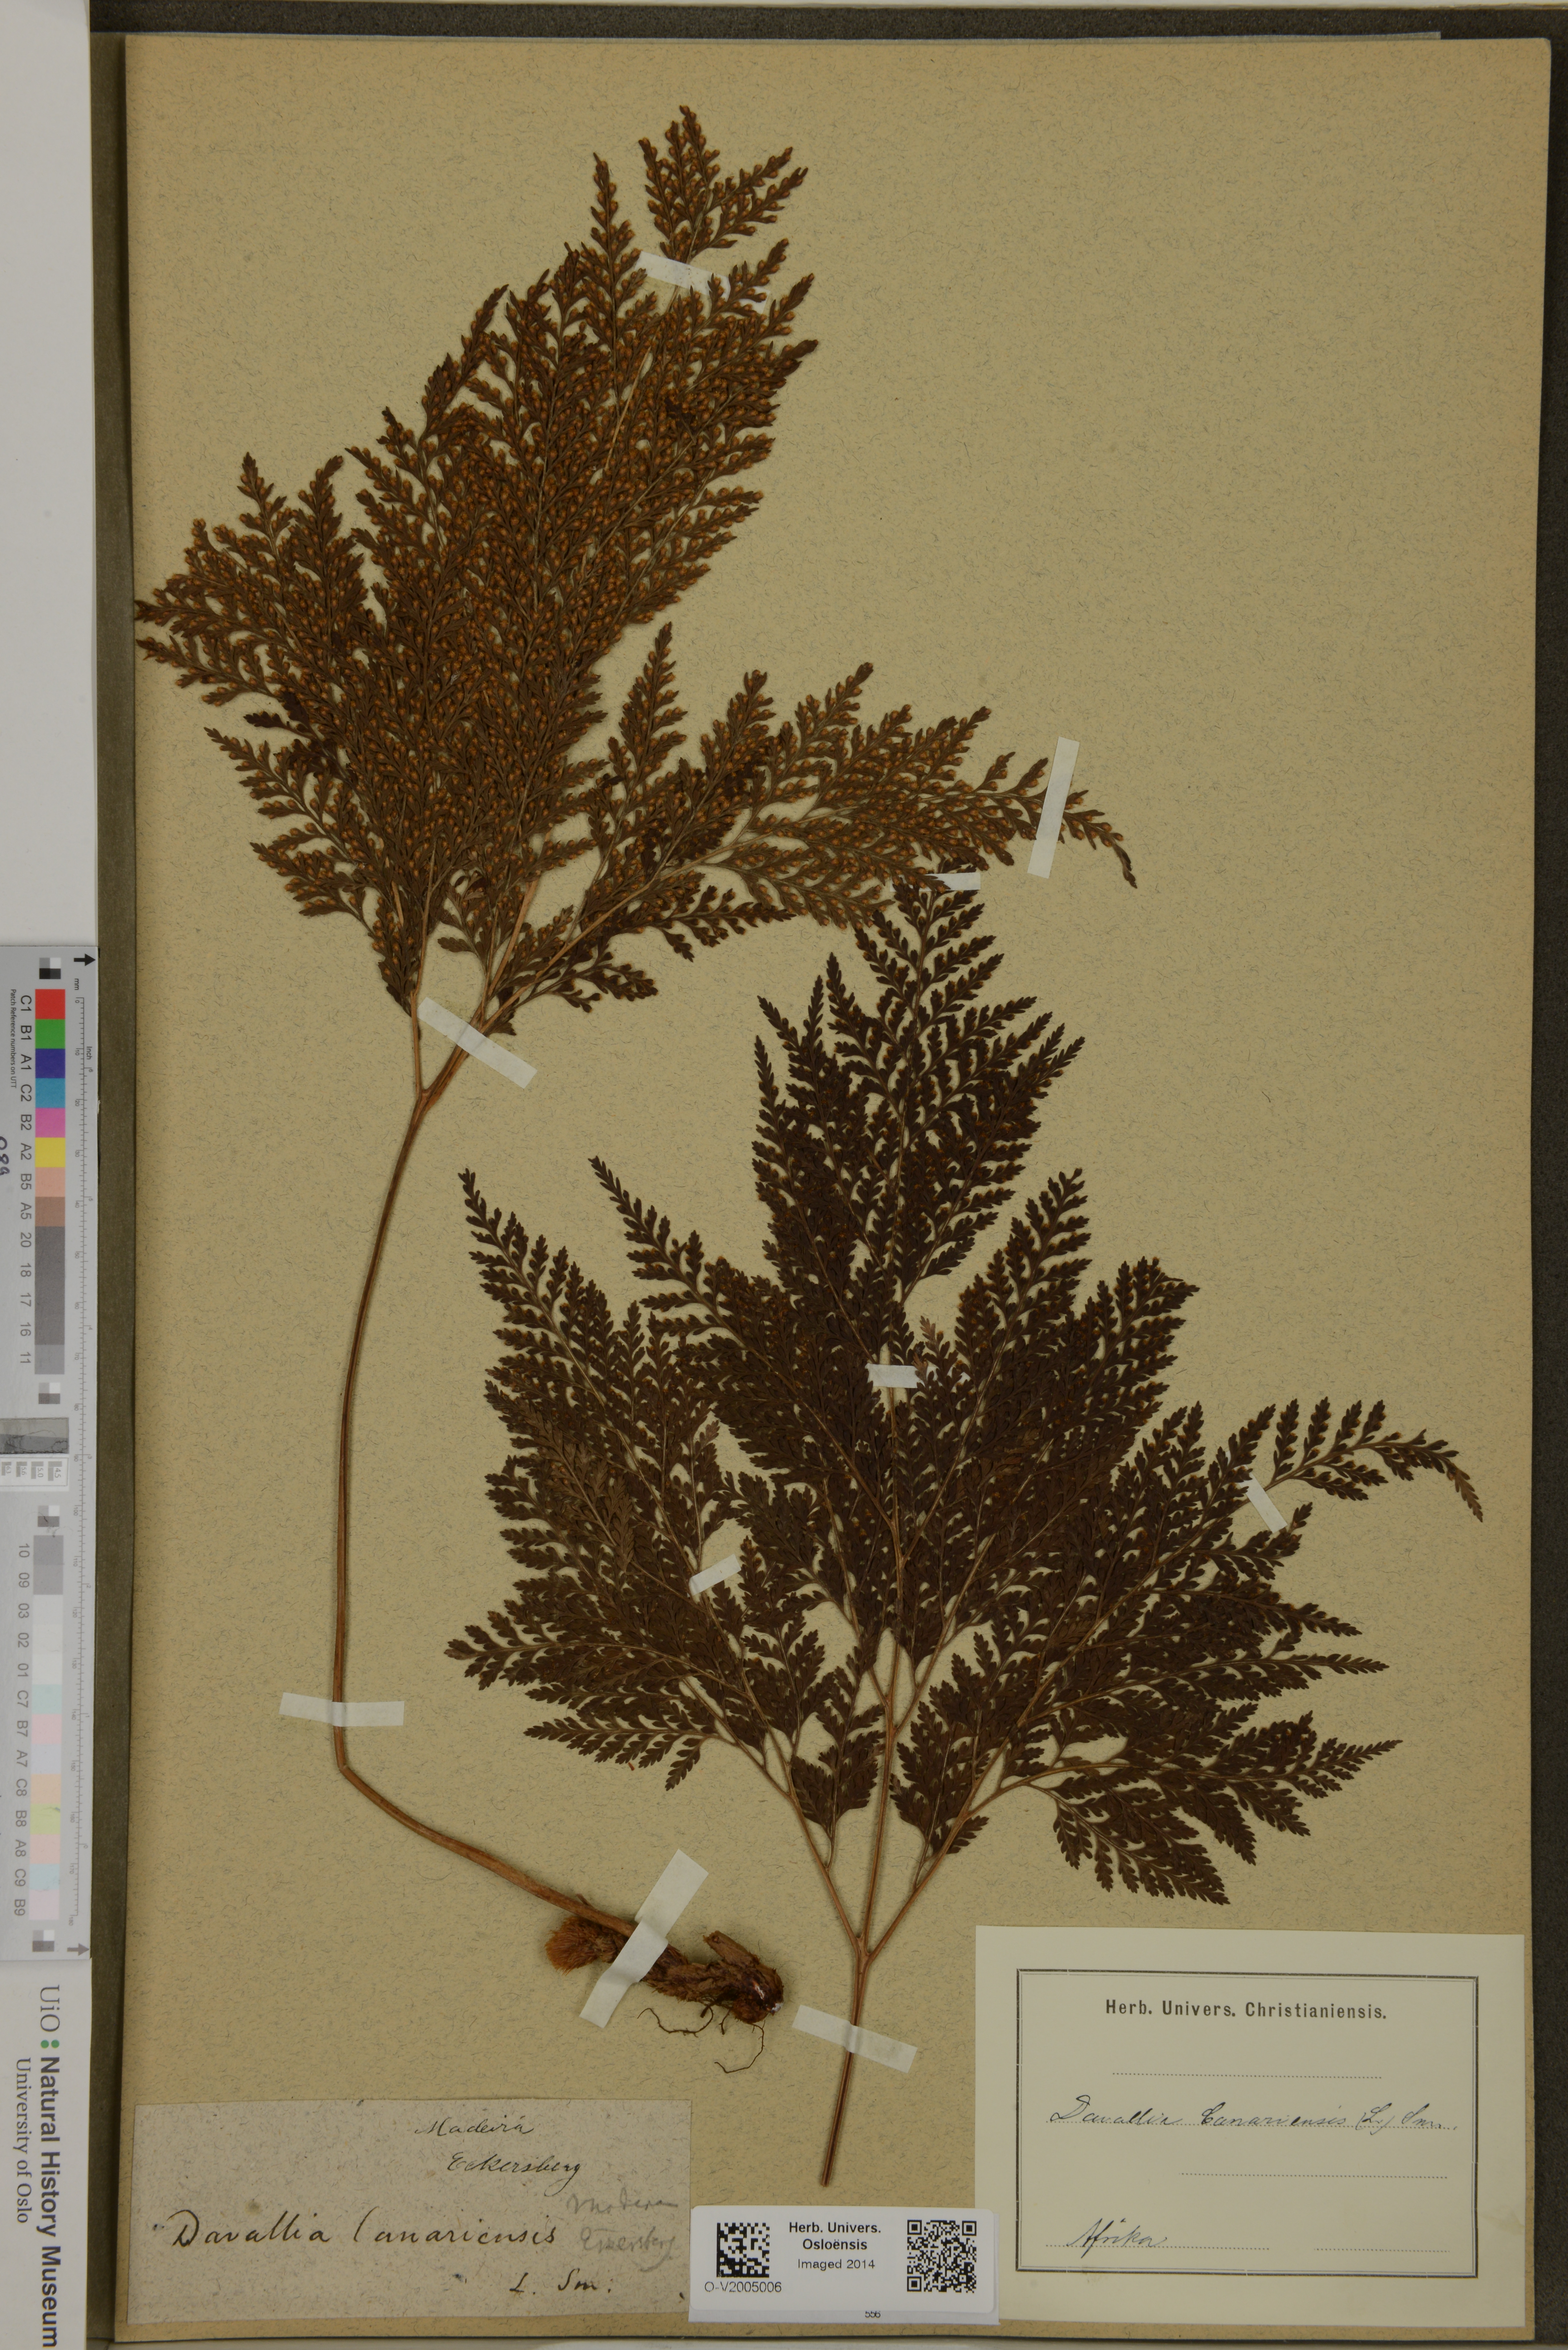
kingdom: Plantae
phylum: Tracheophyta
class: Polypodiopsida
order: Polypodiales
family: Davalliaceae
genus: Davallia
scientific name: Davallia canariensis
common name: Hare's-foot fern
